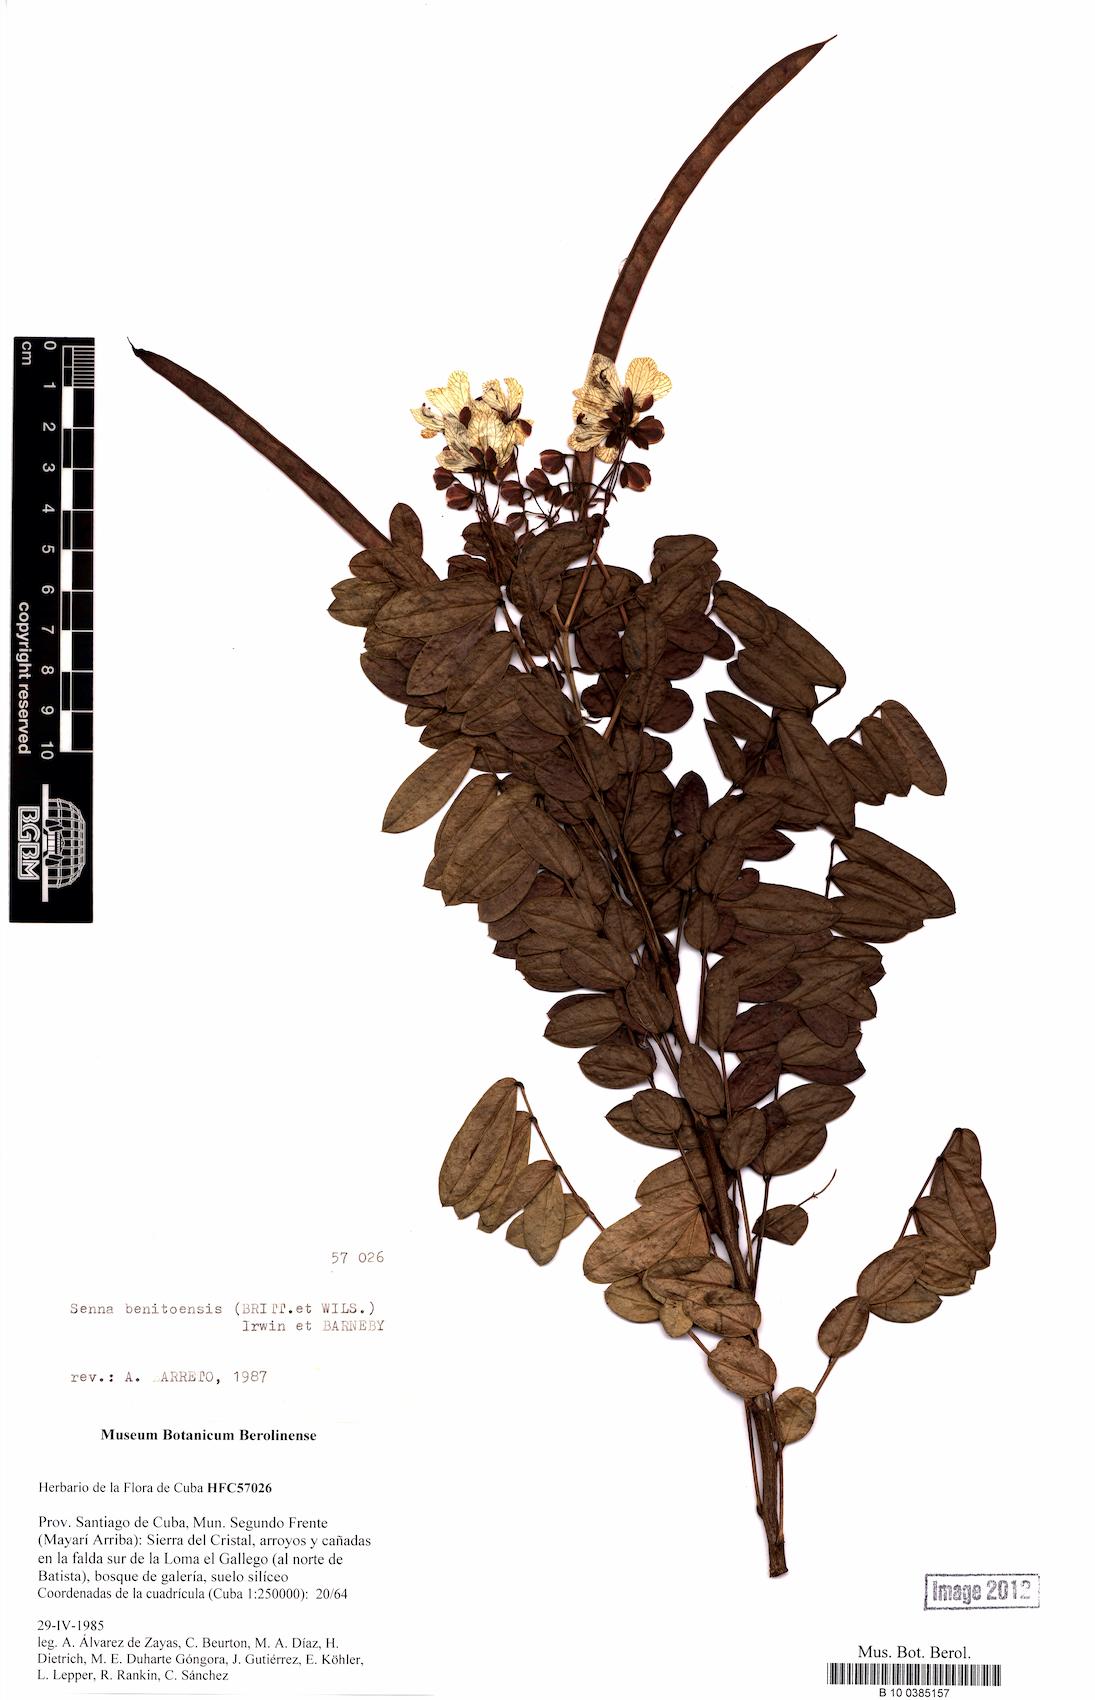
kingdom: Plantae
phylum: Tracheophyta
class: Magnoliopsida
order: Fabales
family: Fabaceae
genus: Senna
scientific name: Senna benitoensis
